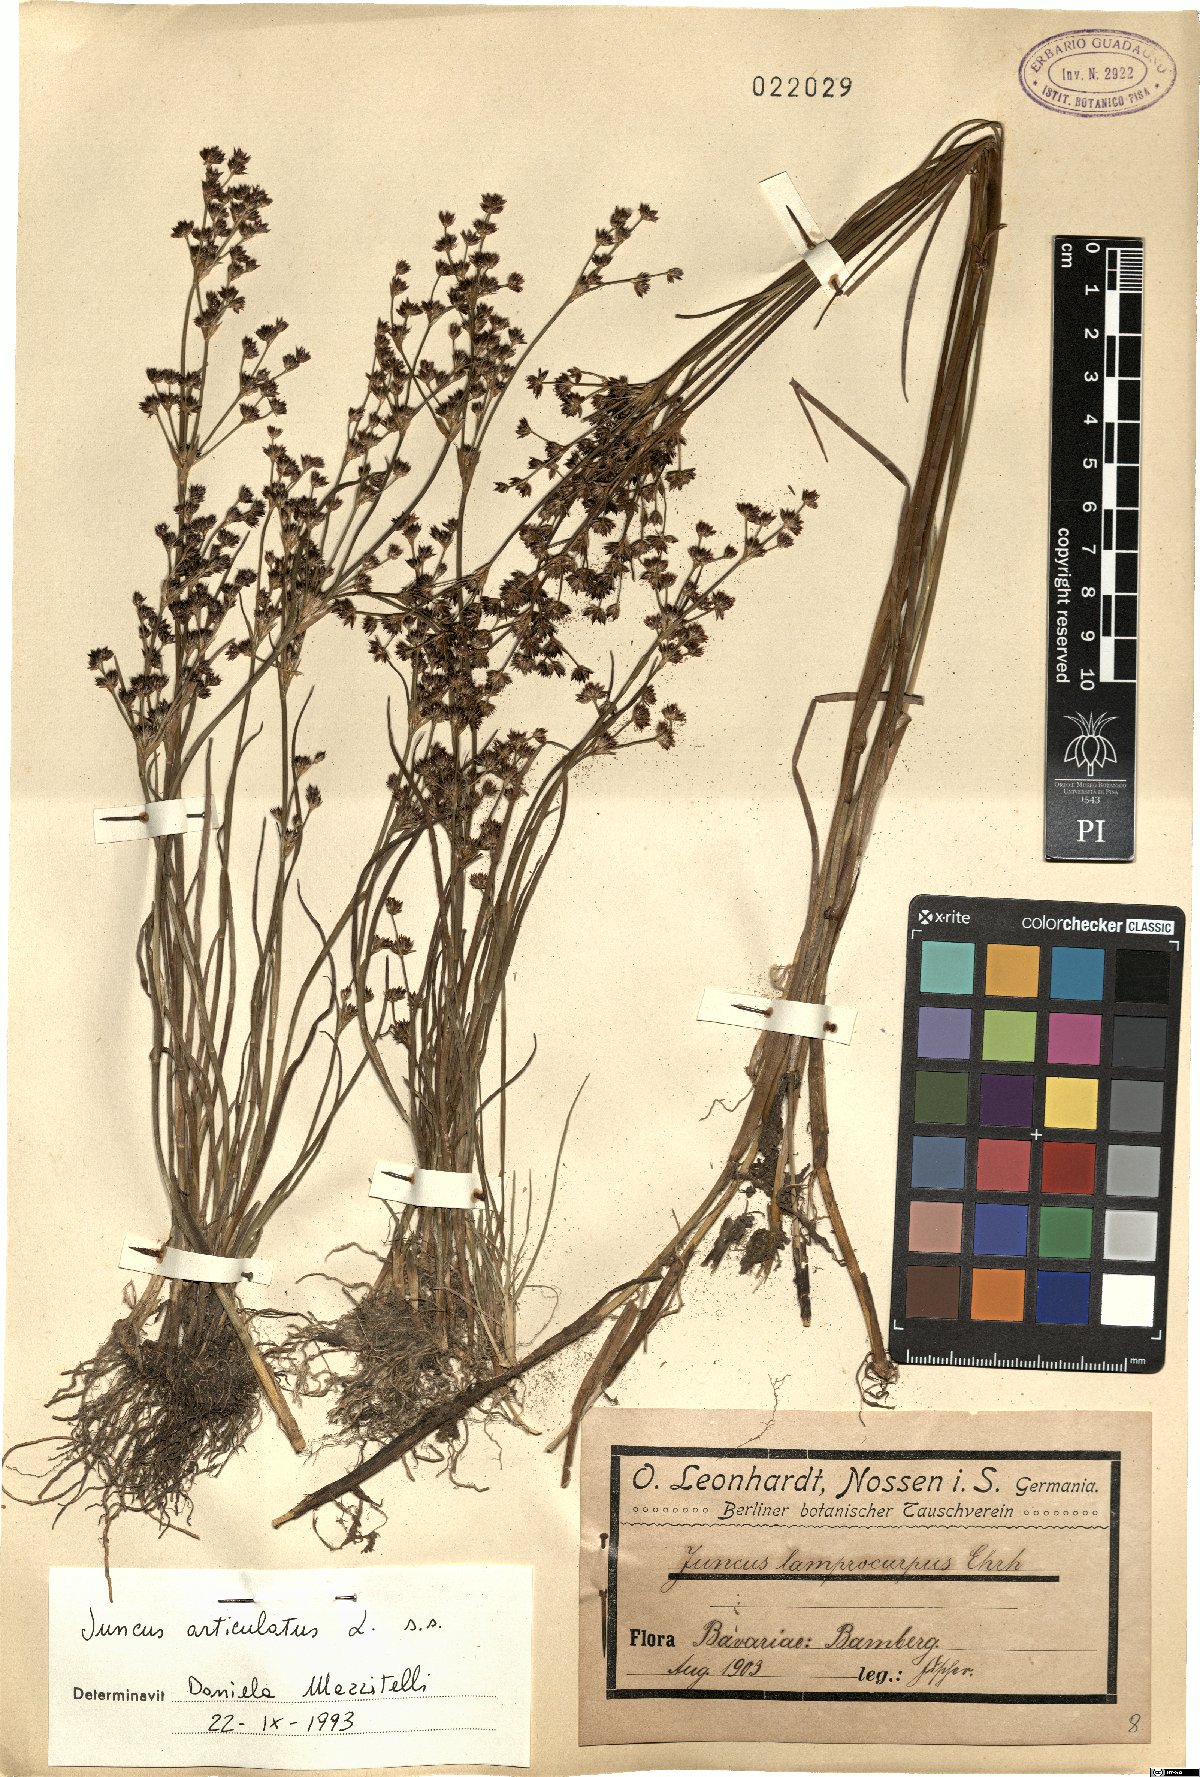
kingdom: Plantae
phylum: Tracheophyta
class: Liliopsida
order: Poales
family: Juncaceae
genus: Juncus
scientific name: Juncus articulatus
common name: Jointed rush
